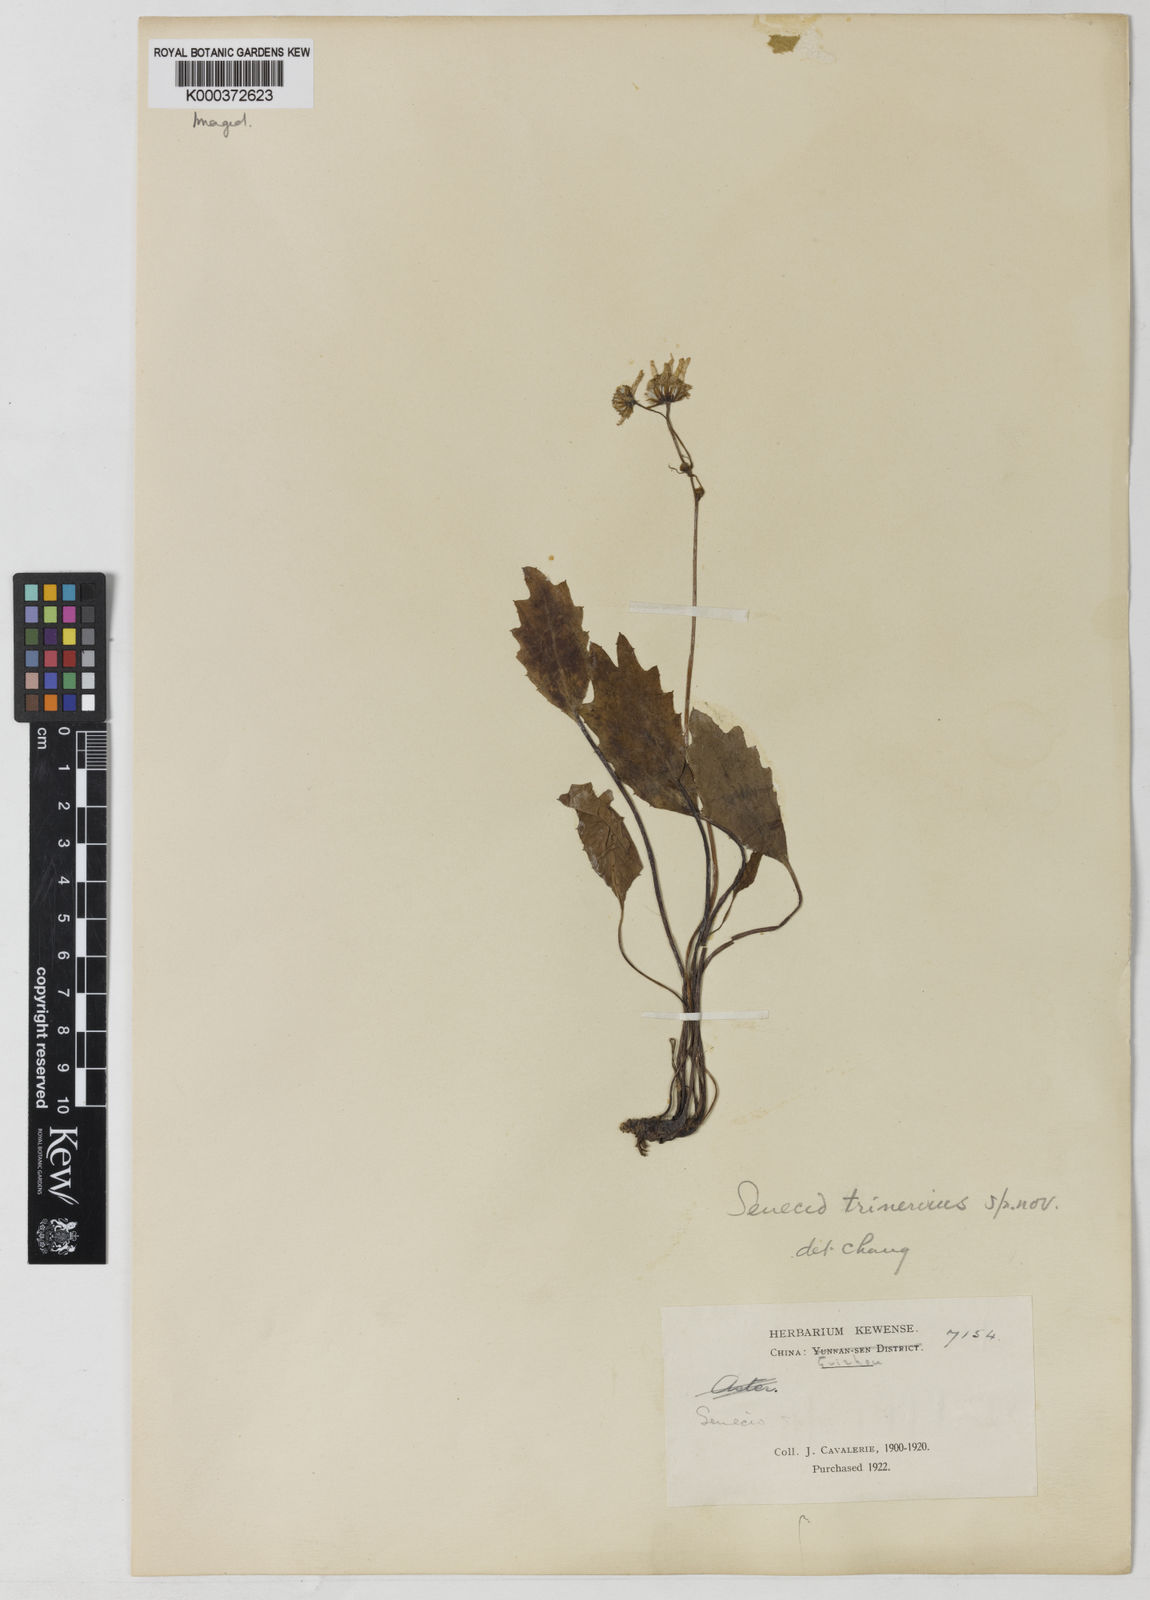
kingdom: Plantae
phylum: Tracheophyta
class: Magnoliopsida
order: Asterales
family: Asteraceae
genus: Sinosenecio
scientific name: Sinosenecio trinervius
